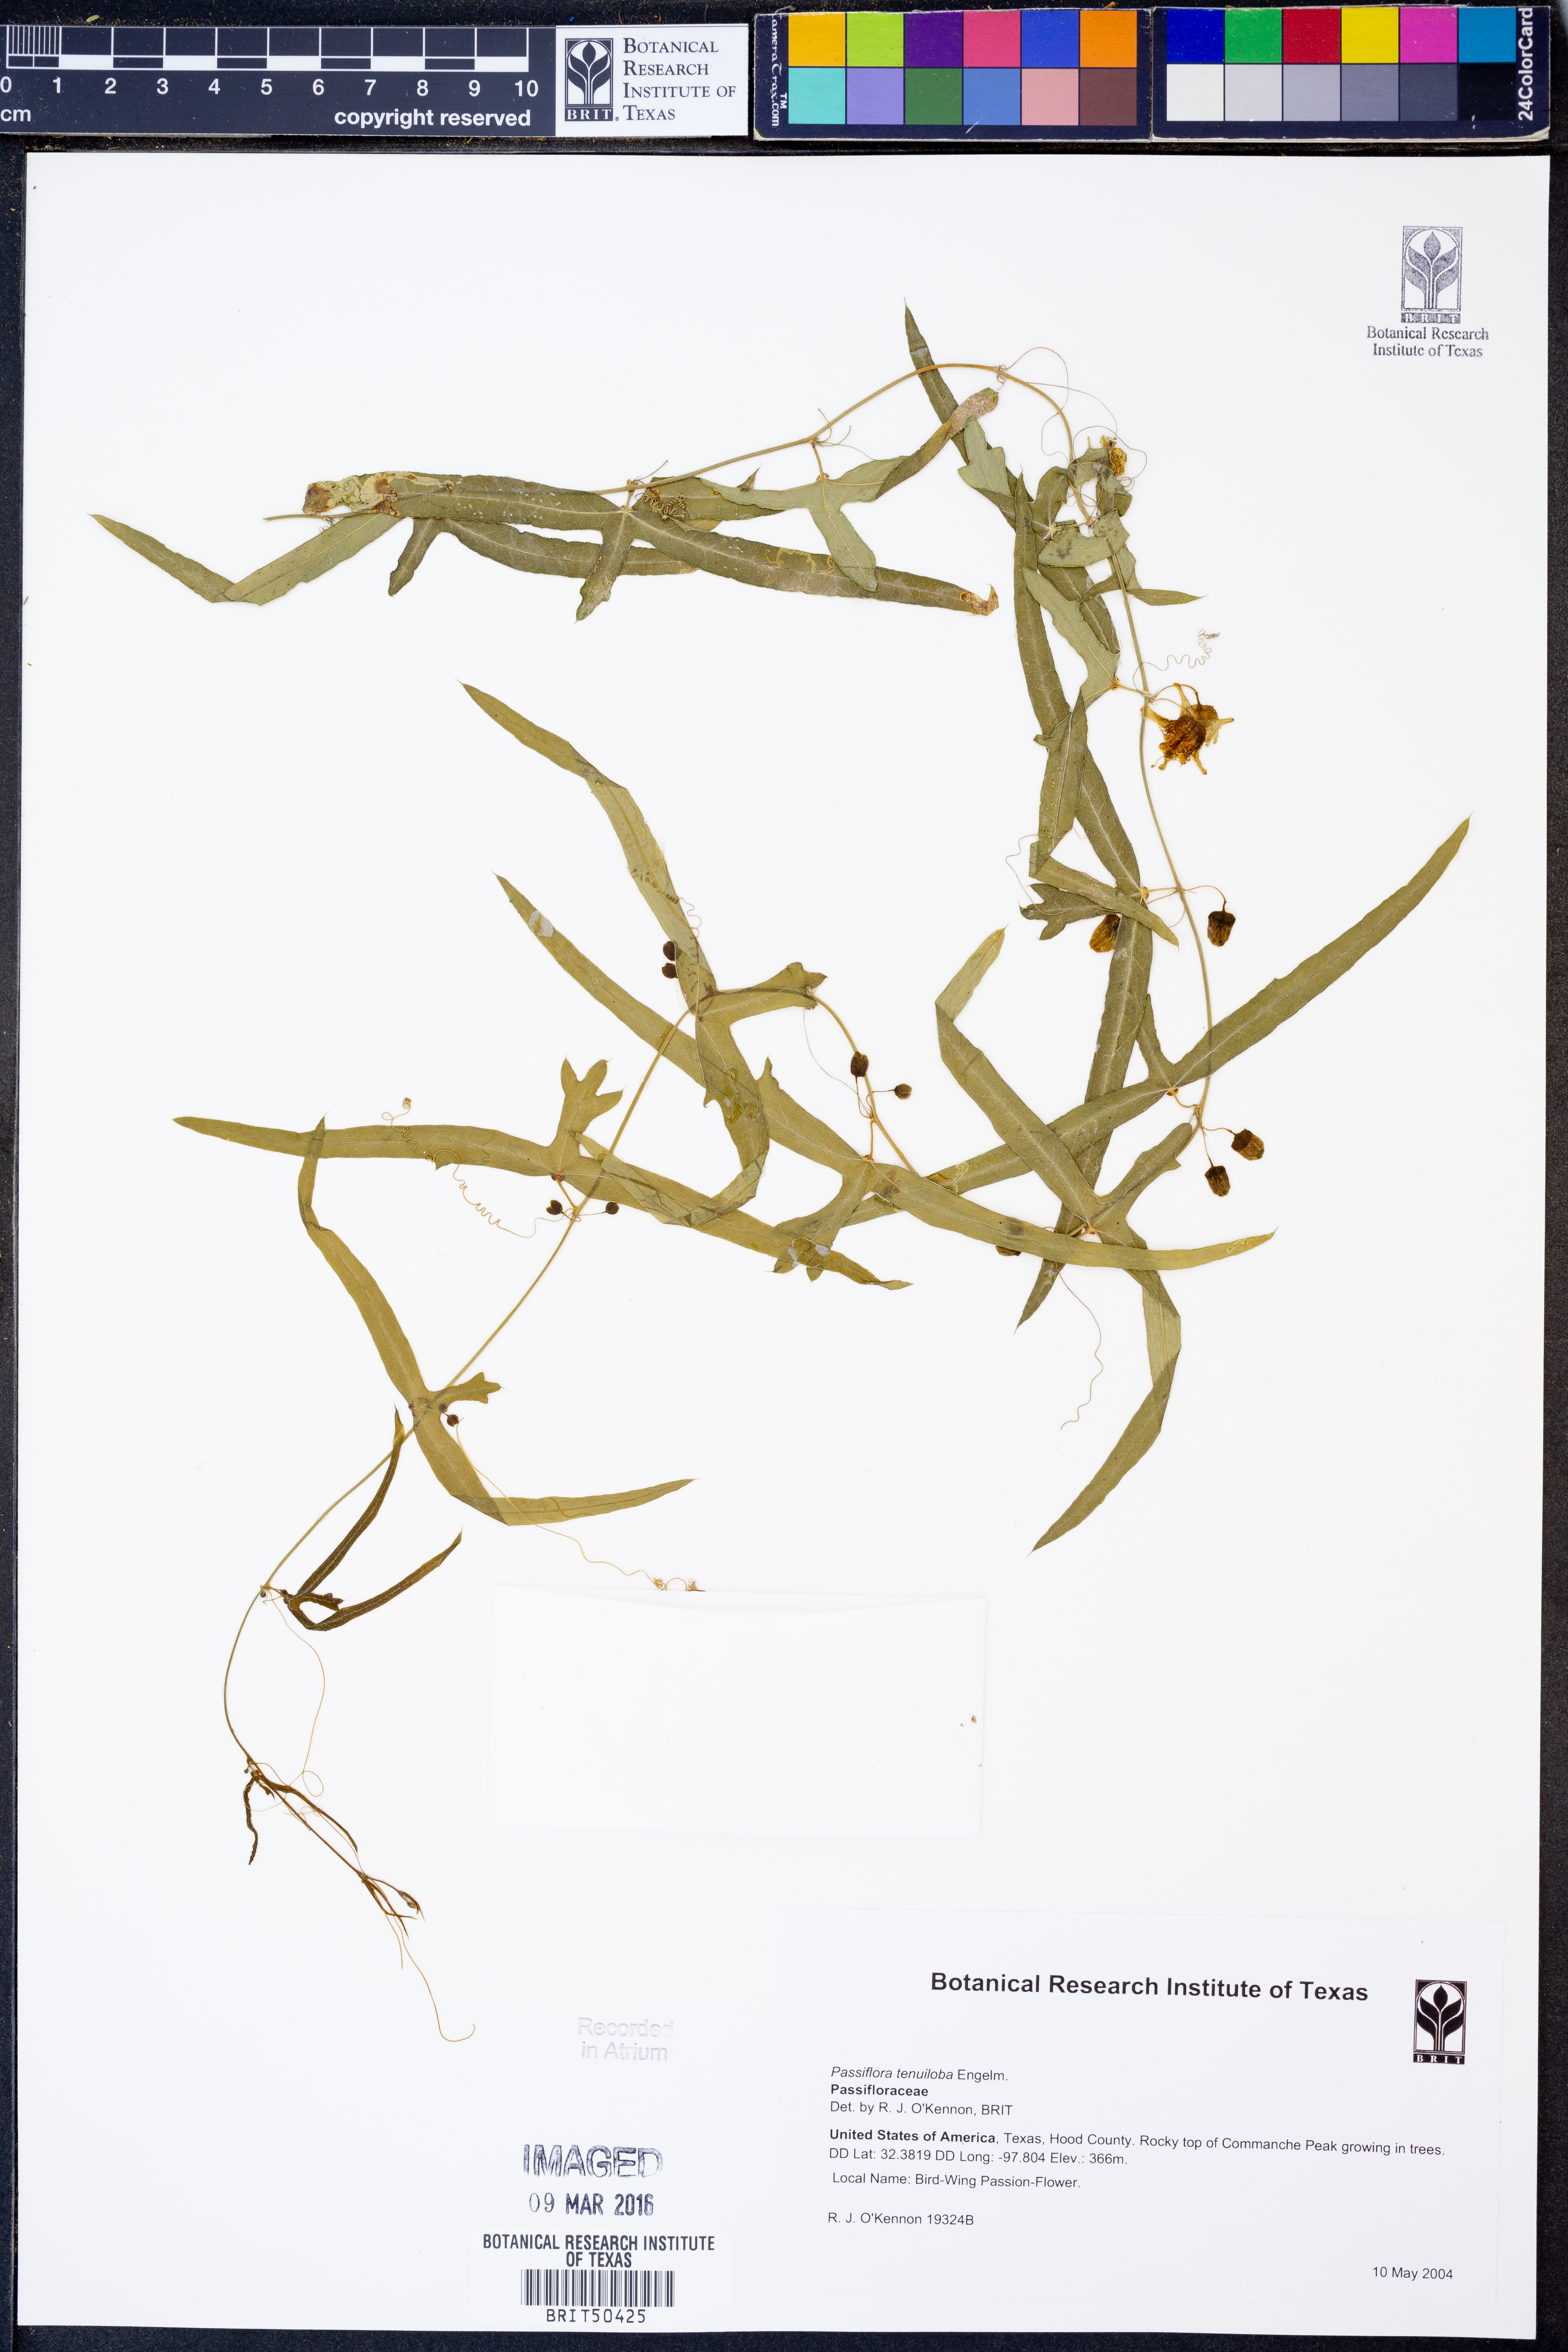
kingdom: Plantae
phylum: Tracheophyta
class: Magnoliopsida
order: Malpighiales
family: Passifloraceae
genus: Passiflora
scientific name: Passiflora tenuiloba
